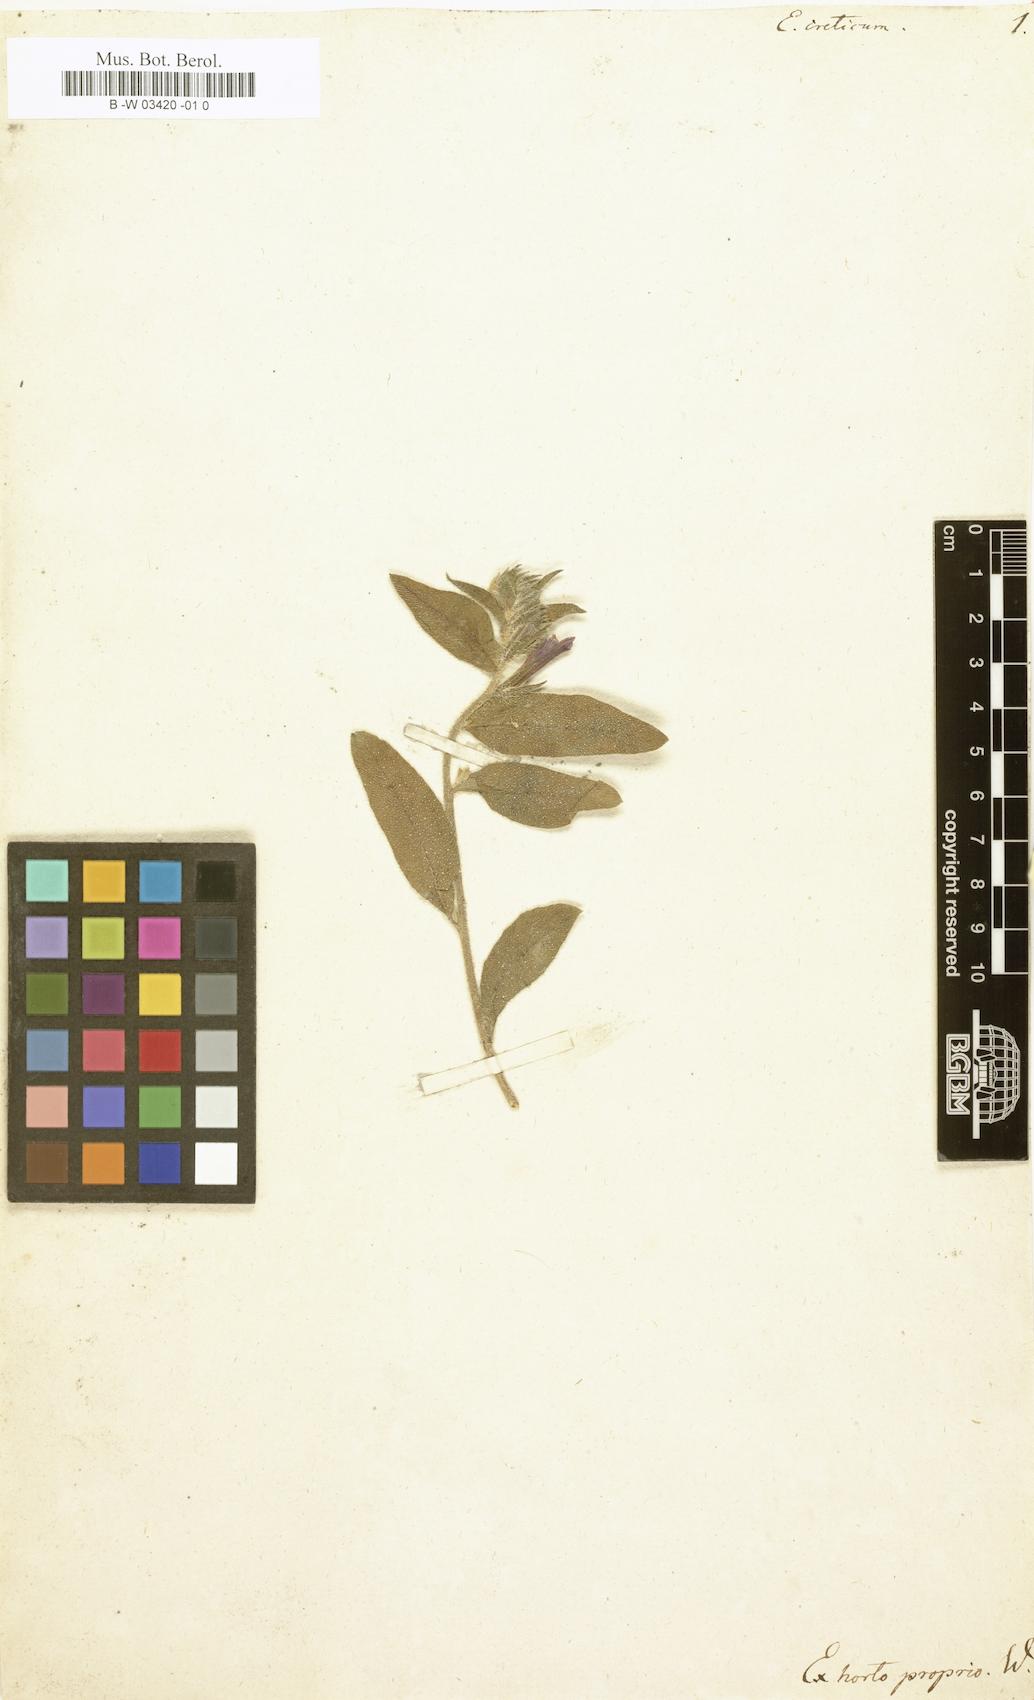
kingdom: Plantae
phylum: Tracheophyta
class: Magnoliopsida
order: Boraginales
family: Boraginaceae
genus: Echium
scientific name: Echium creticum
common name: Cretan viper's bugloss
